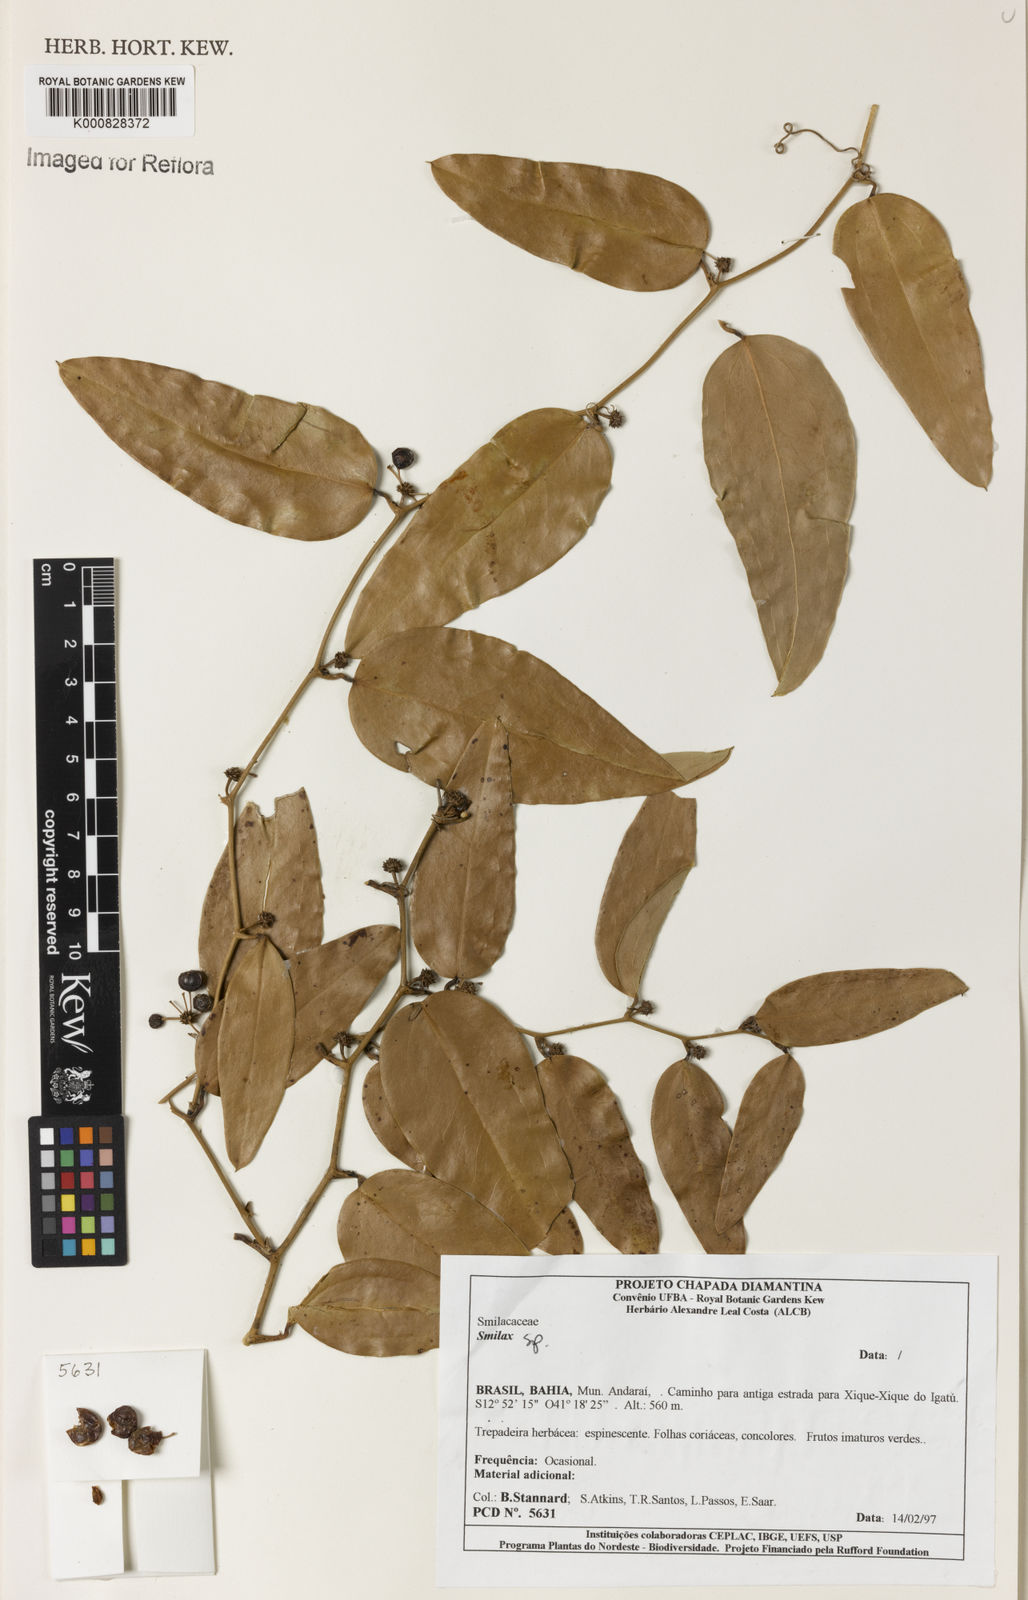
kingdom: Plantae
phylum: Tracheophyta
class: Liliopsida
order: Liliales
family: Smilacaceae
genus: Smilax
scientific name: Smilax
